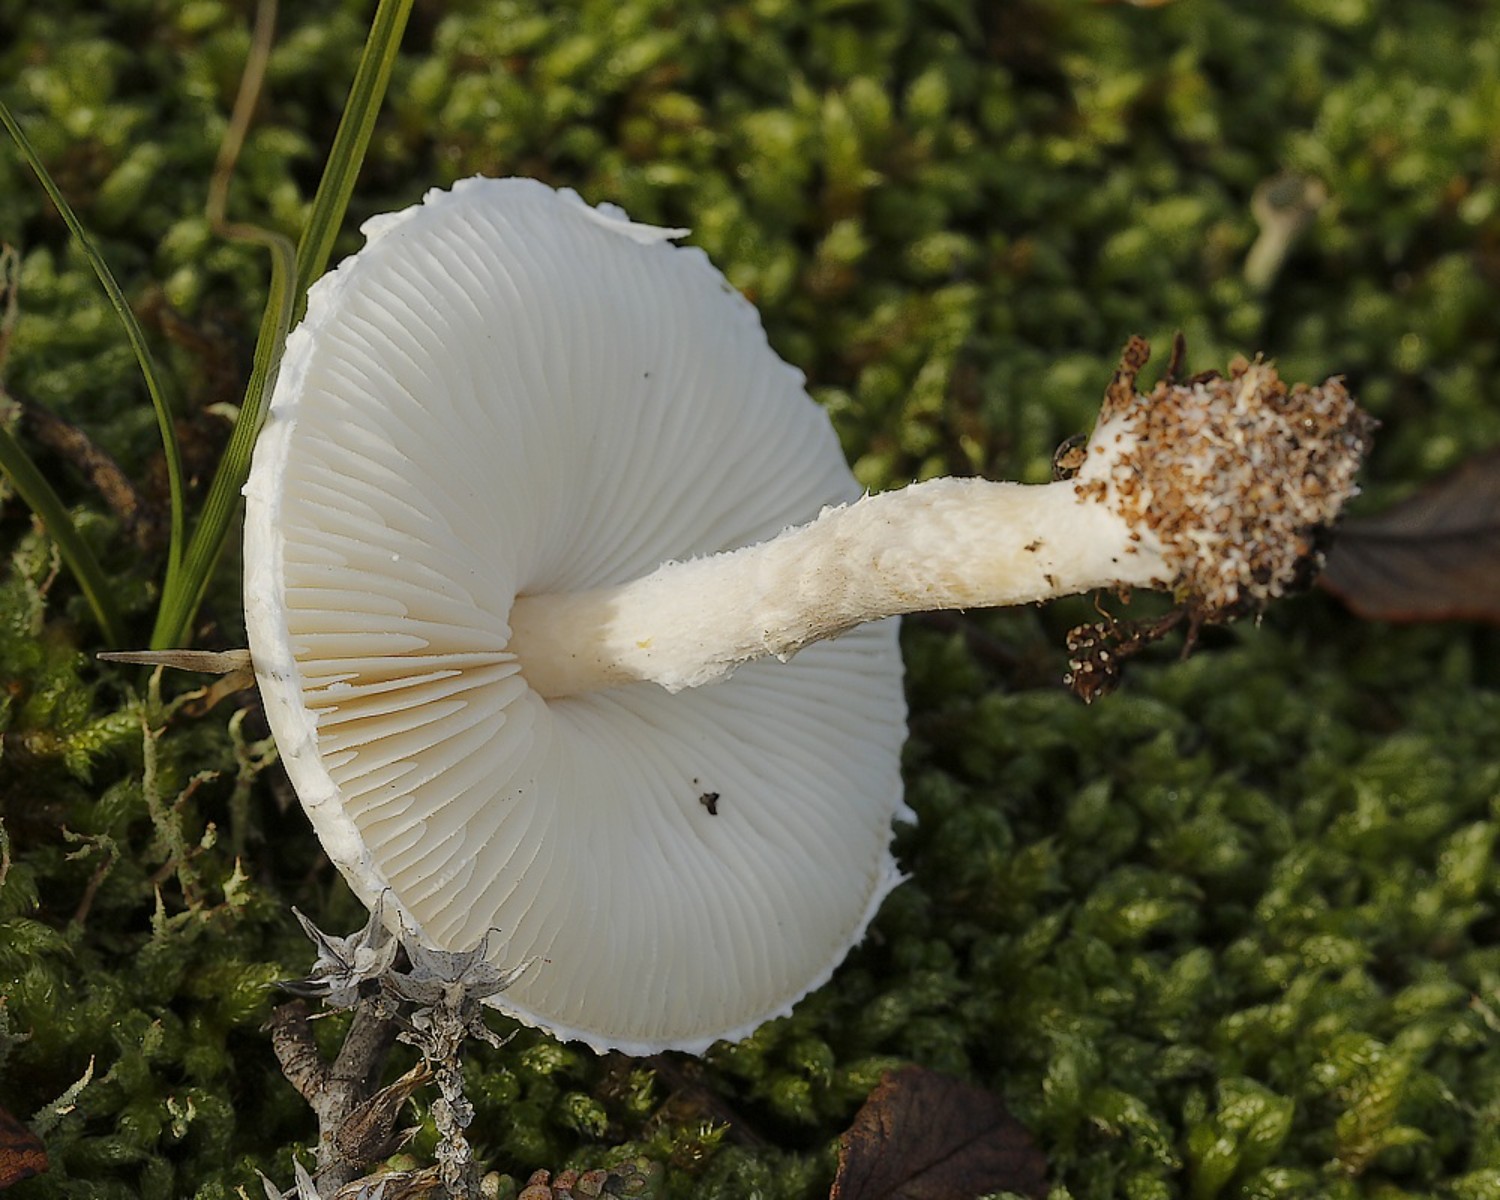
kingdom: Fungi
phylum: Basidiomycota
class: Agaricomycetes
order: Agaricales
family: Agaricaceae
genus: Lepiota
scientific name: Lepiota erminea
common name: hvid parasolhat
